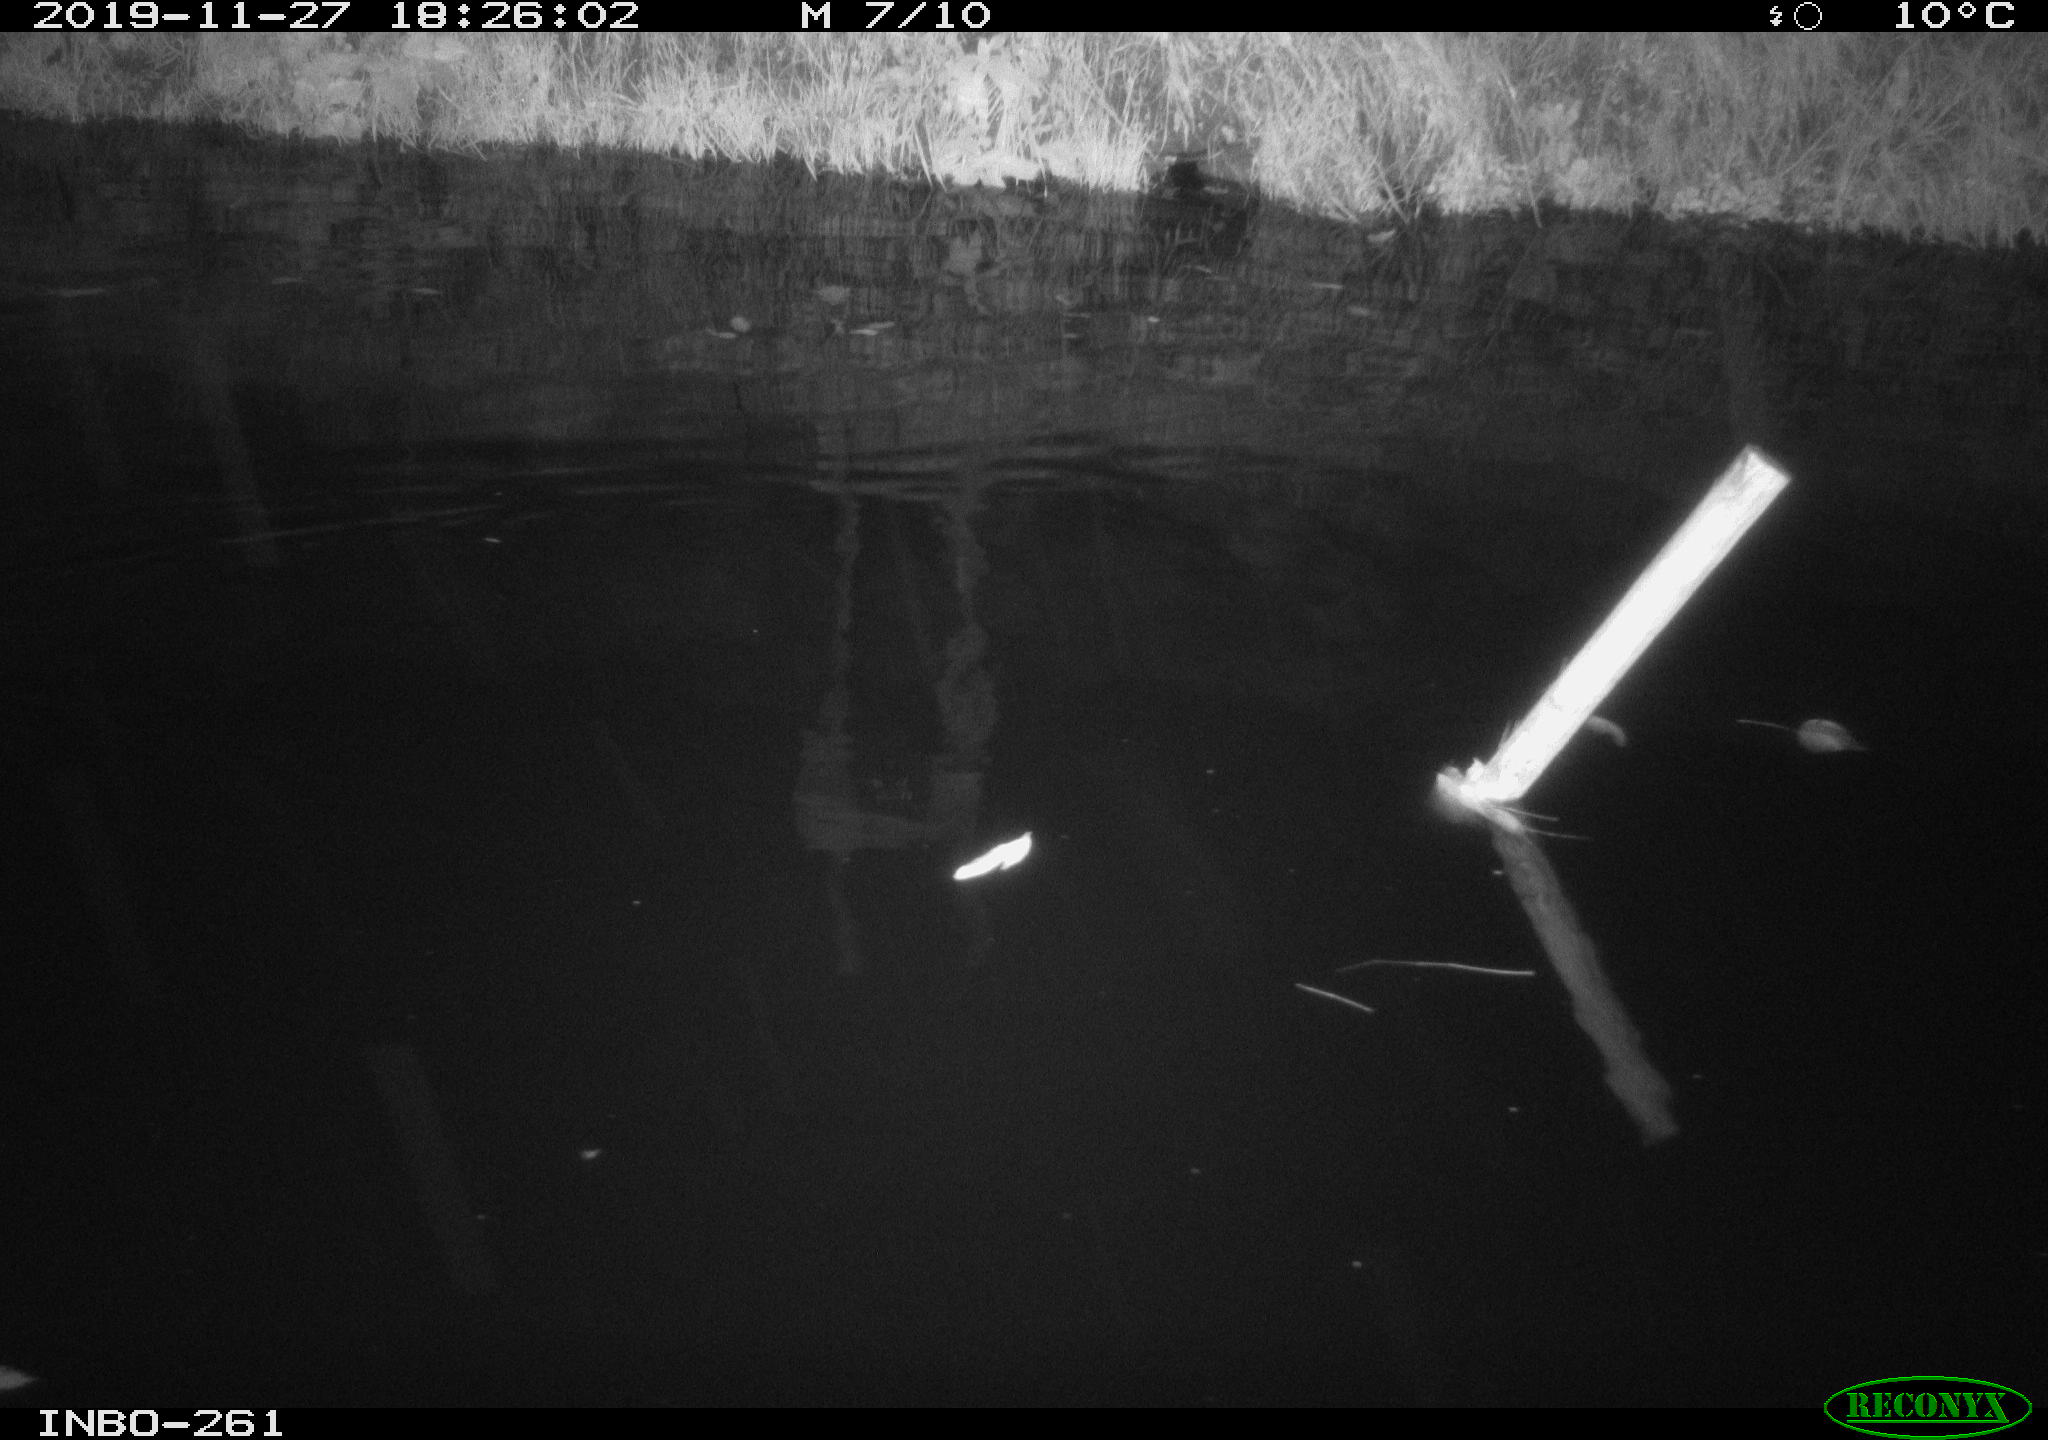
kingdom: Animalia
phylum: Chordata
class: Aves
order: Anseriformes
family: Anatidae
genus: Anas
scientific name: Anas platyrhynchos
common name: Mallard
